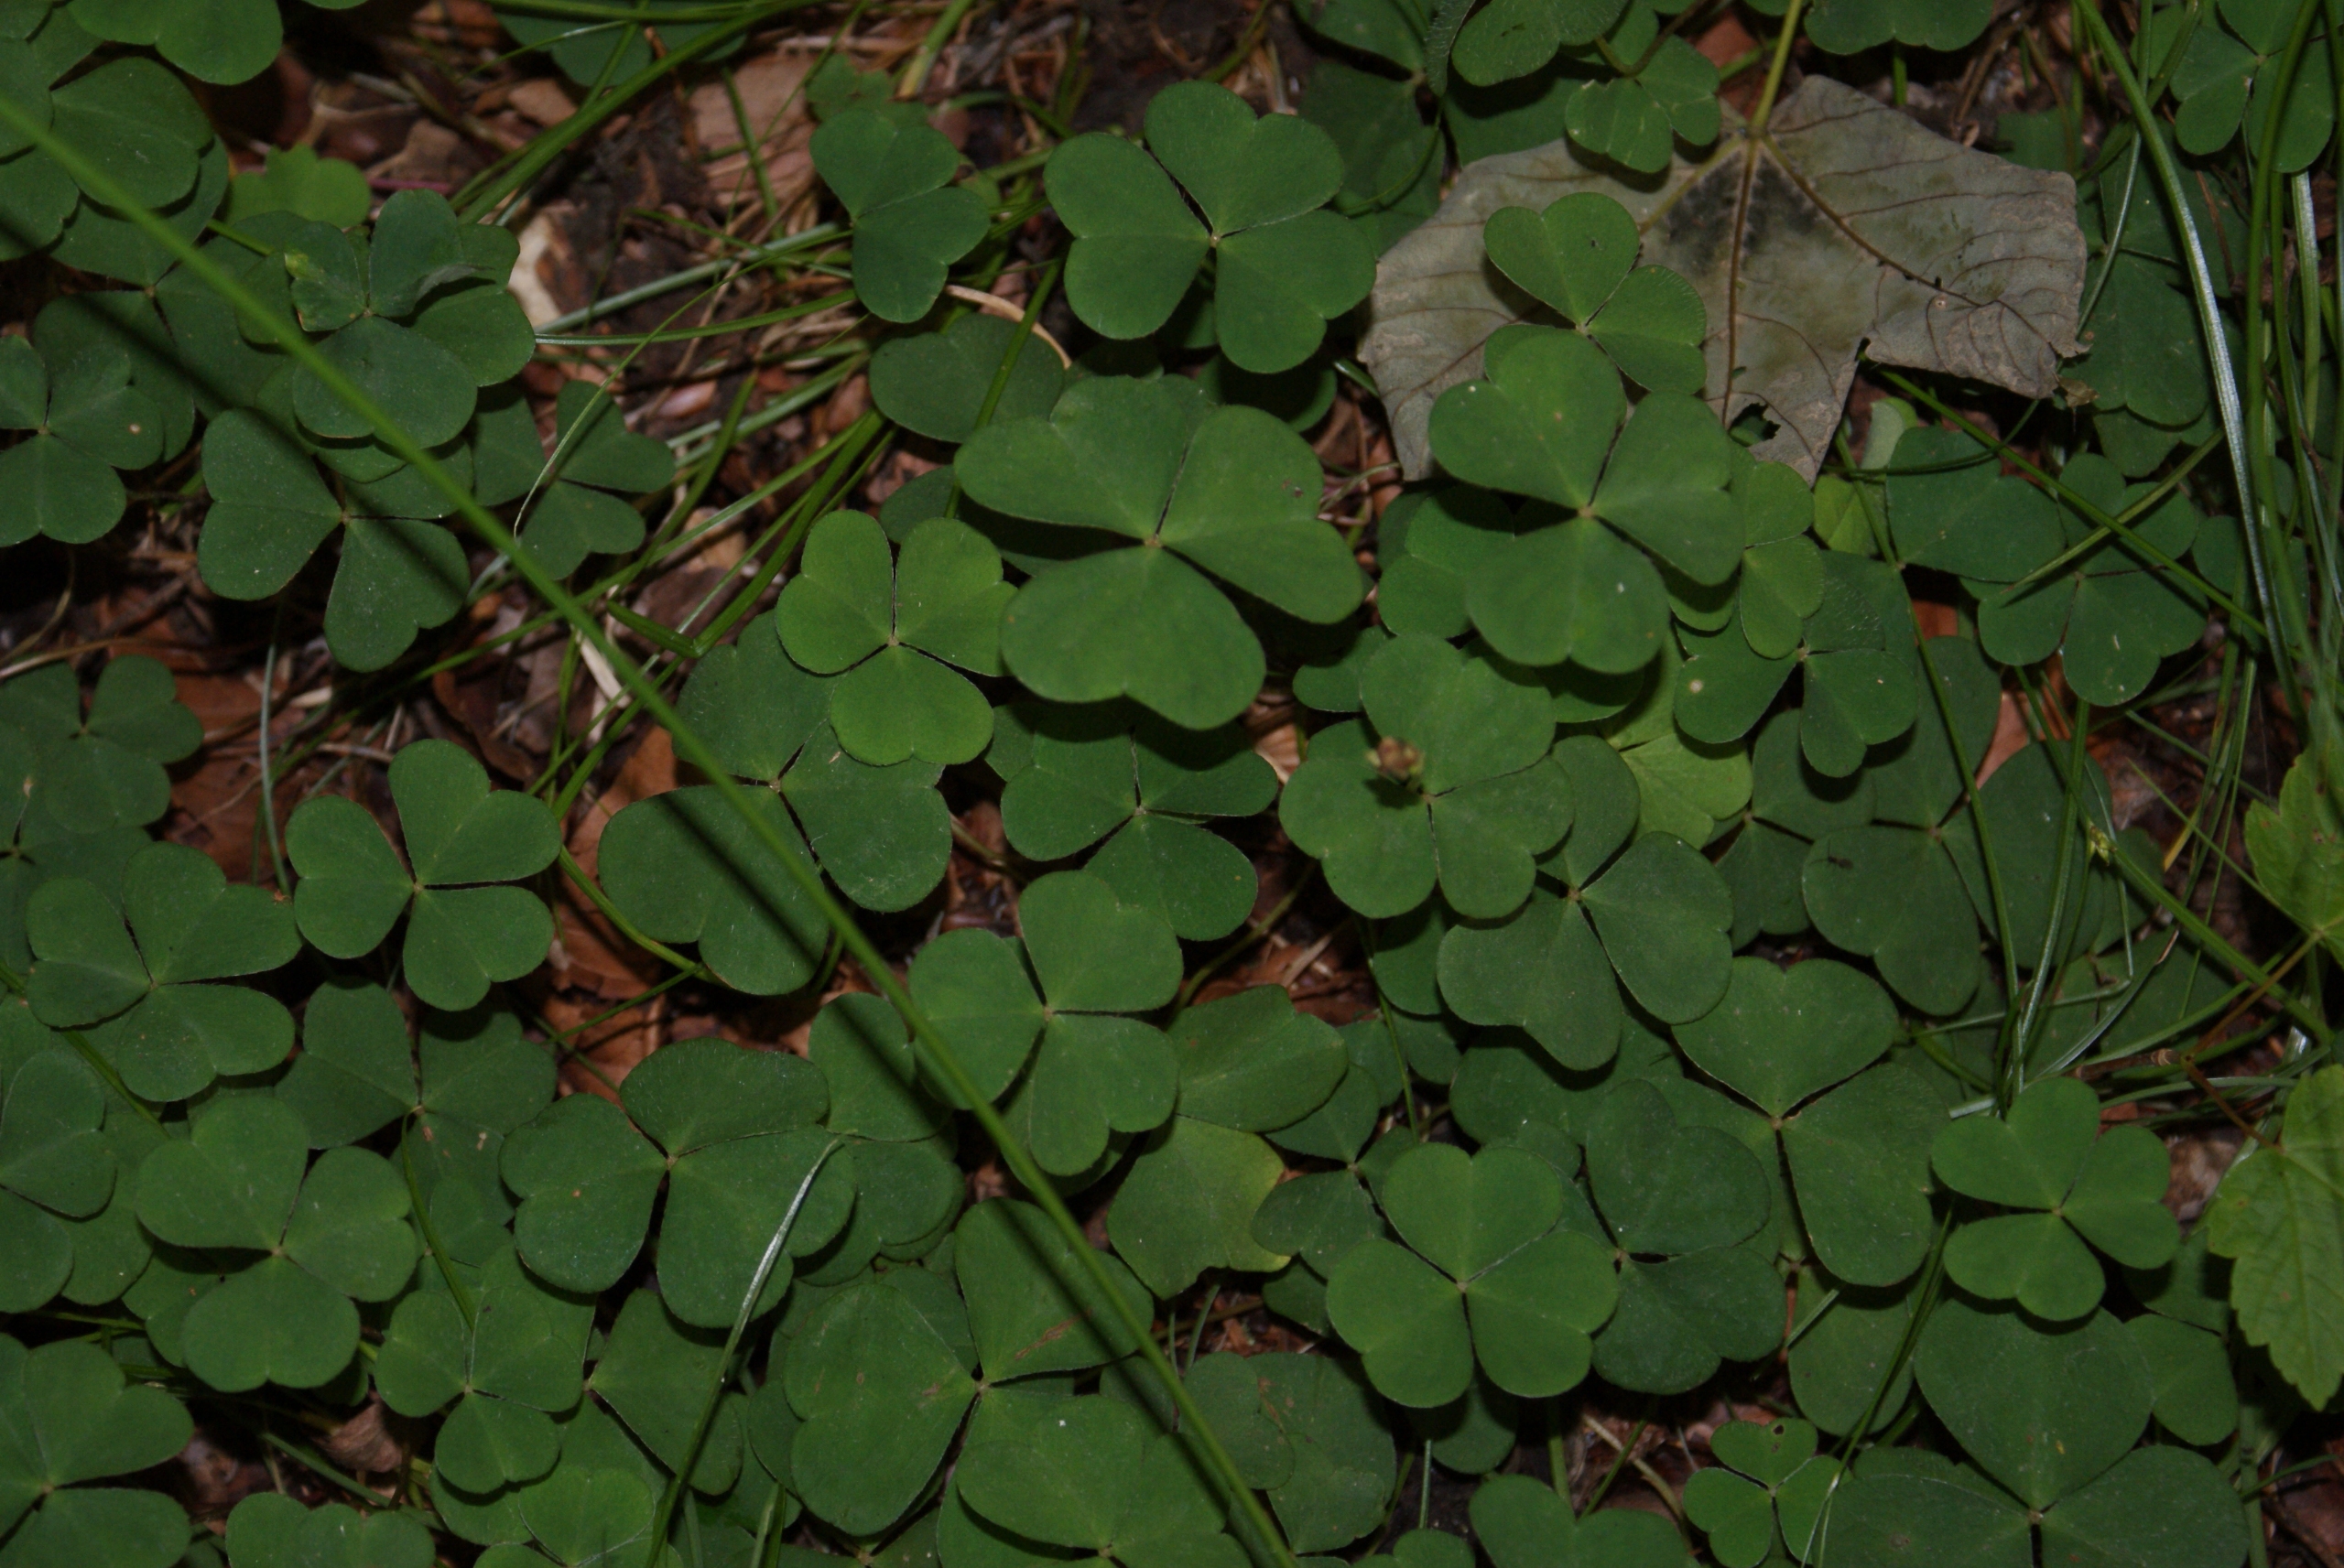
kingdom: Plantae
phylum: Tracheophyta
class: Magnoliopsida
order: Oxalidales
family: Oxalidaceae
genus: Oxalis
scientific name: Oxalis acetosella
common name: Skovsyre
